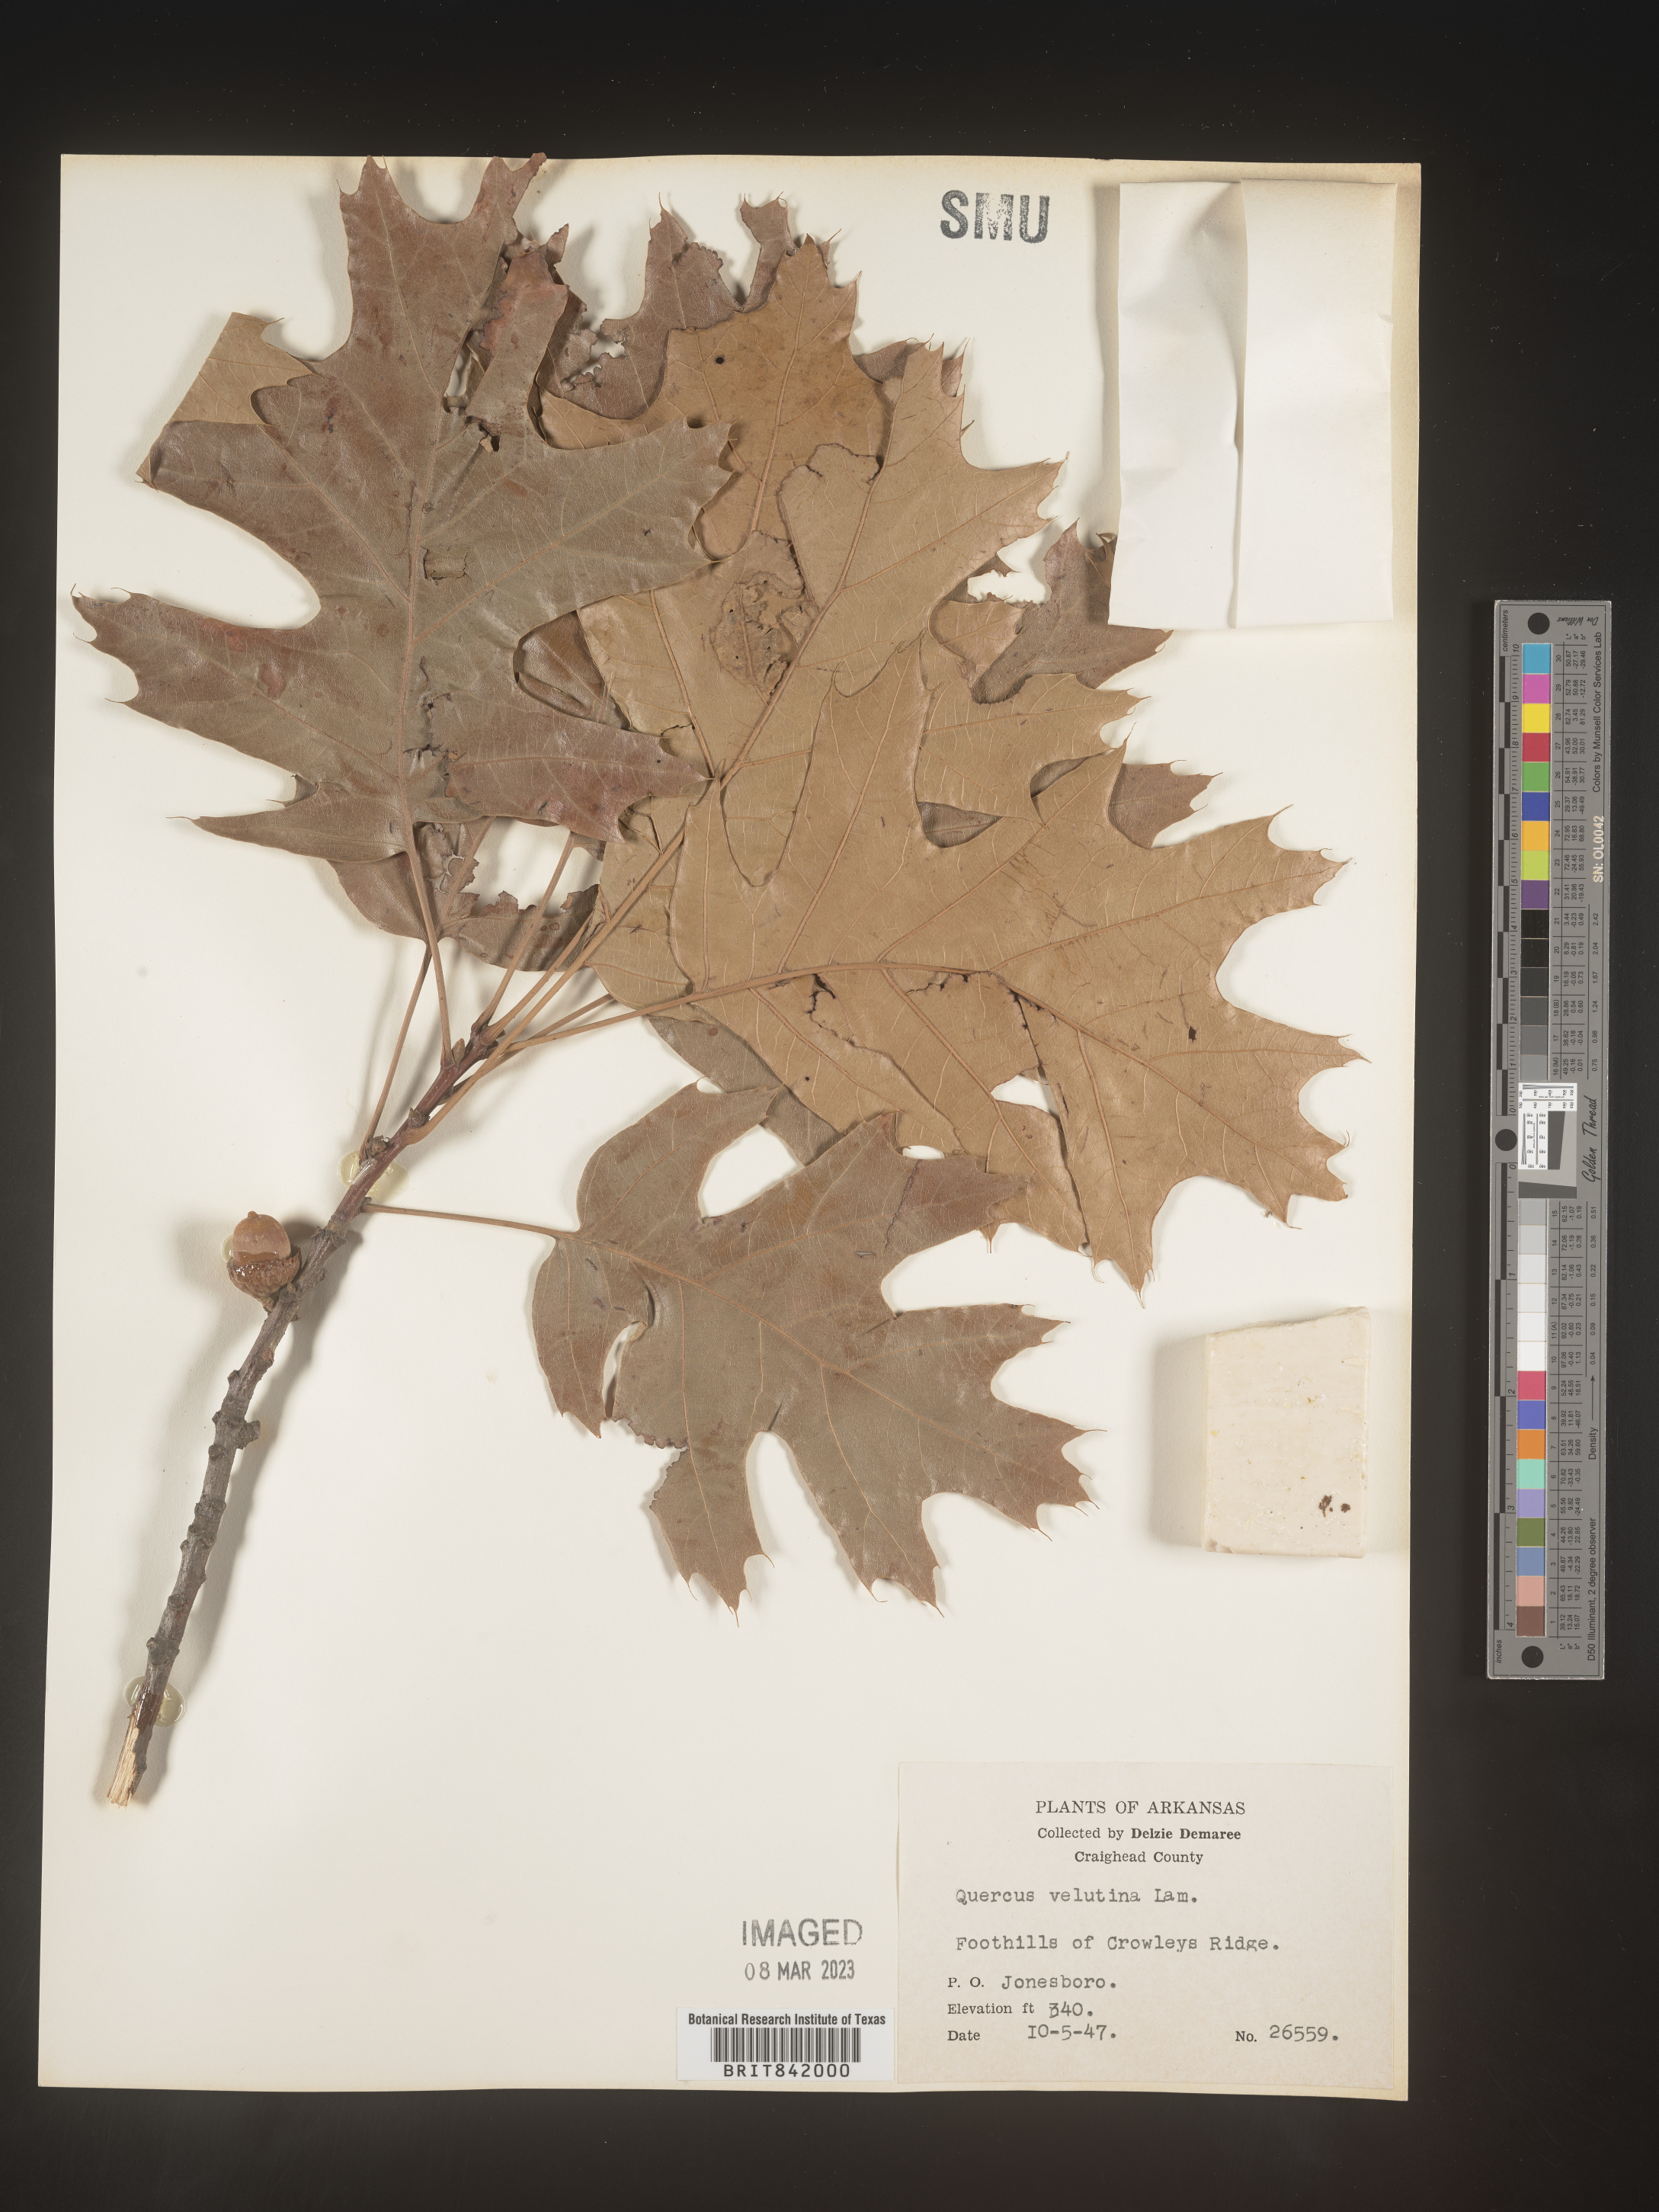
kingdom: Plantae
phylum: Tracheophyta
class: Magnoliopsida
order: Fagales
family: Fagaceae
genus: Quercus
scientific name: Quercus velutina
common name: Black oak
